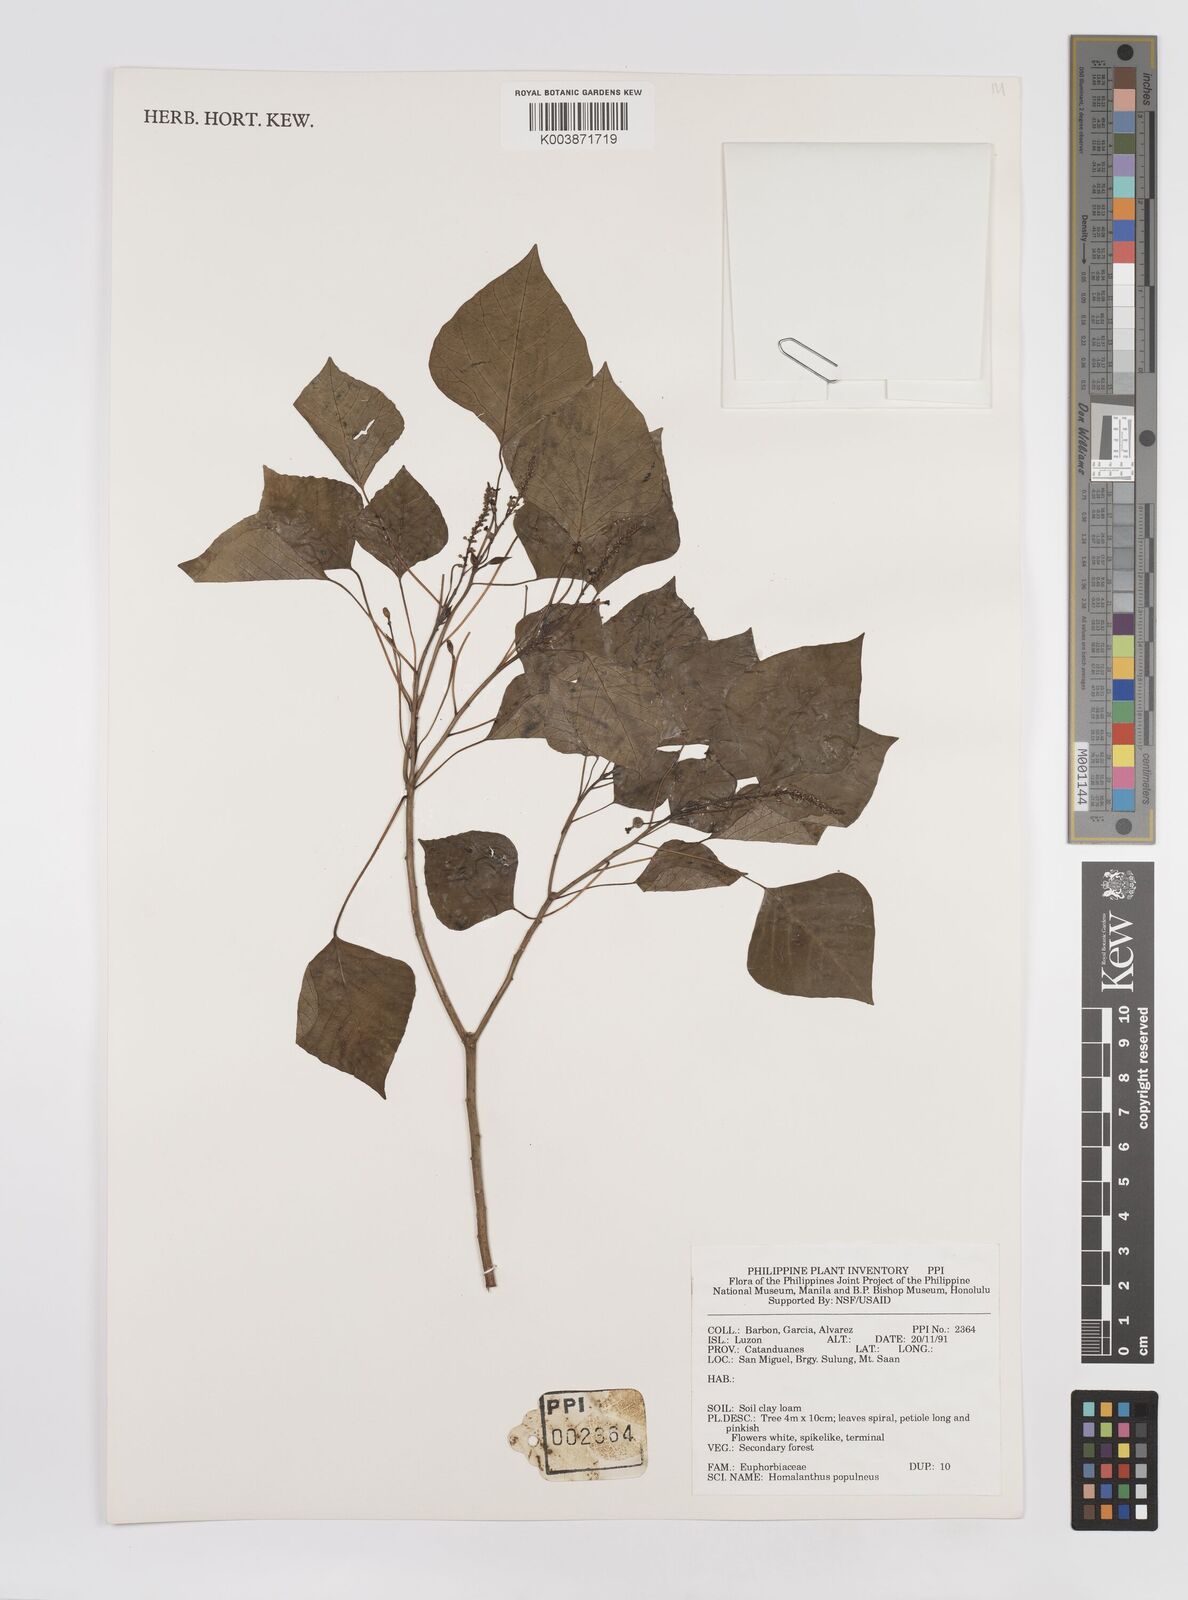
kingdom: Plantae
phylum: Tracheophyta
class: Magnoliopsida
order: Malpighiales
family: Euphorbiaceae
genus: Homalanthus
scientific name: Homalanthus populneus
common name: Spurge
